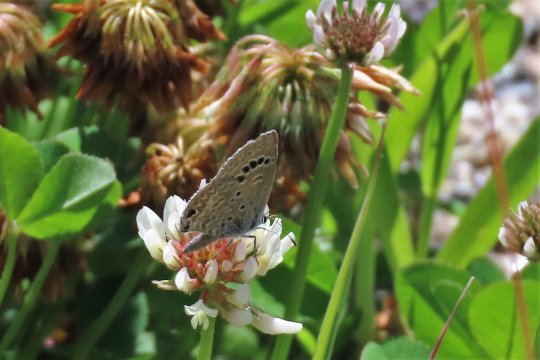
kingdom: Animalia
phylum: Arthropoda
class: Insecta
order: Lepidoptera
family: Lycaenidae
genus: Echinargus
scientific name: Echinargus isola
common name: Reakirt's Blue
